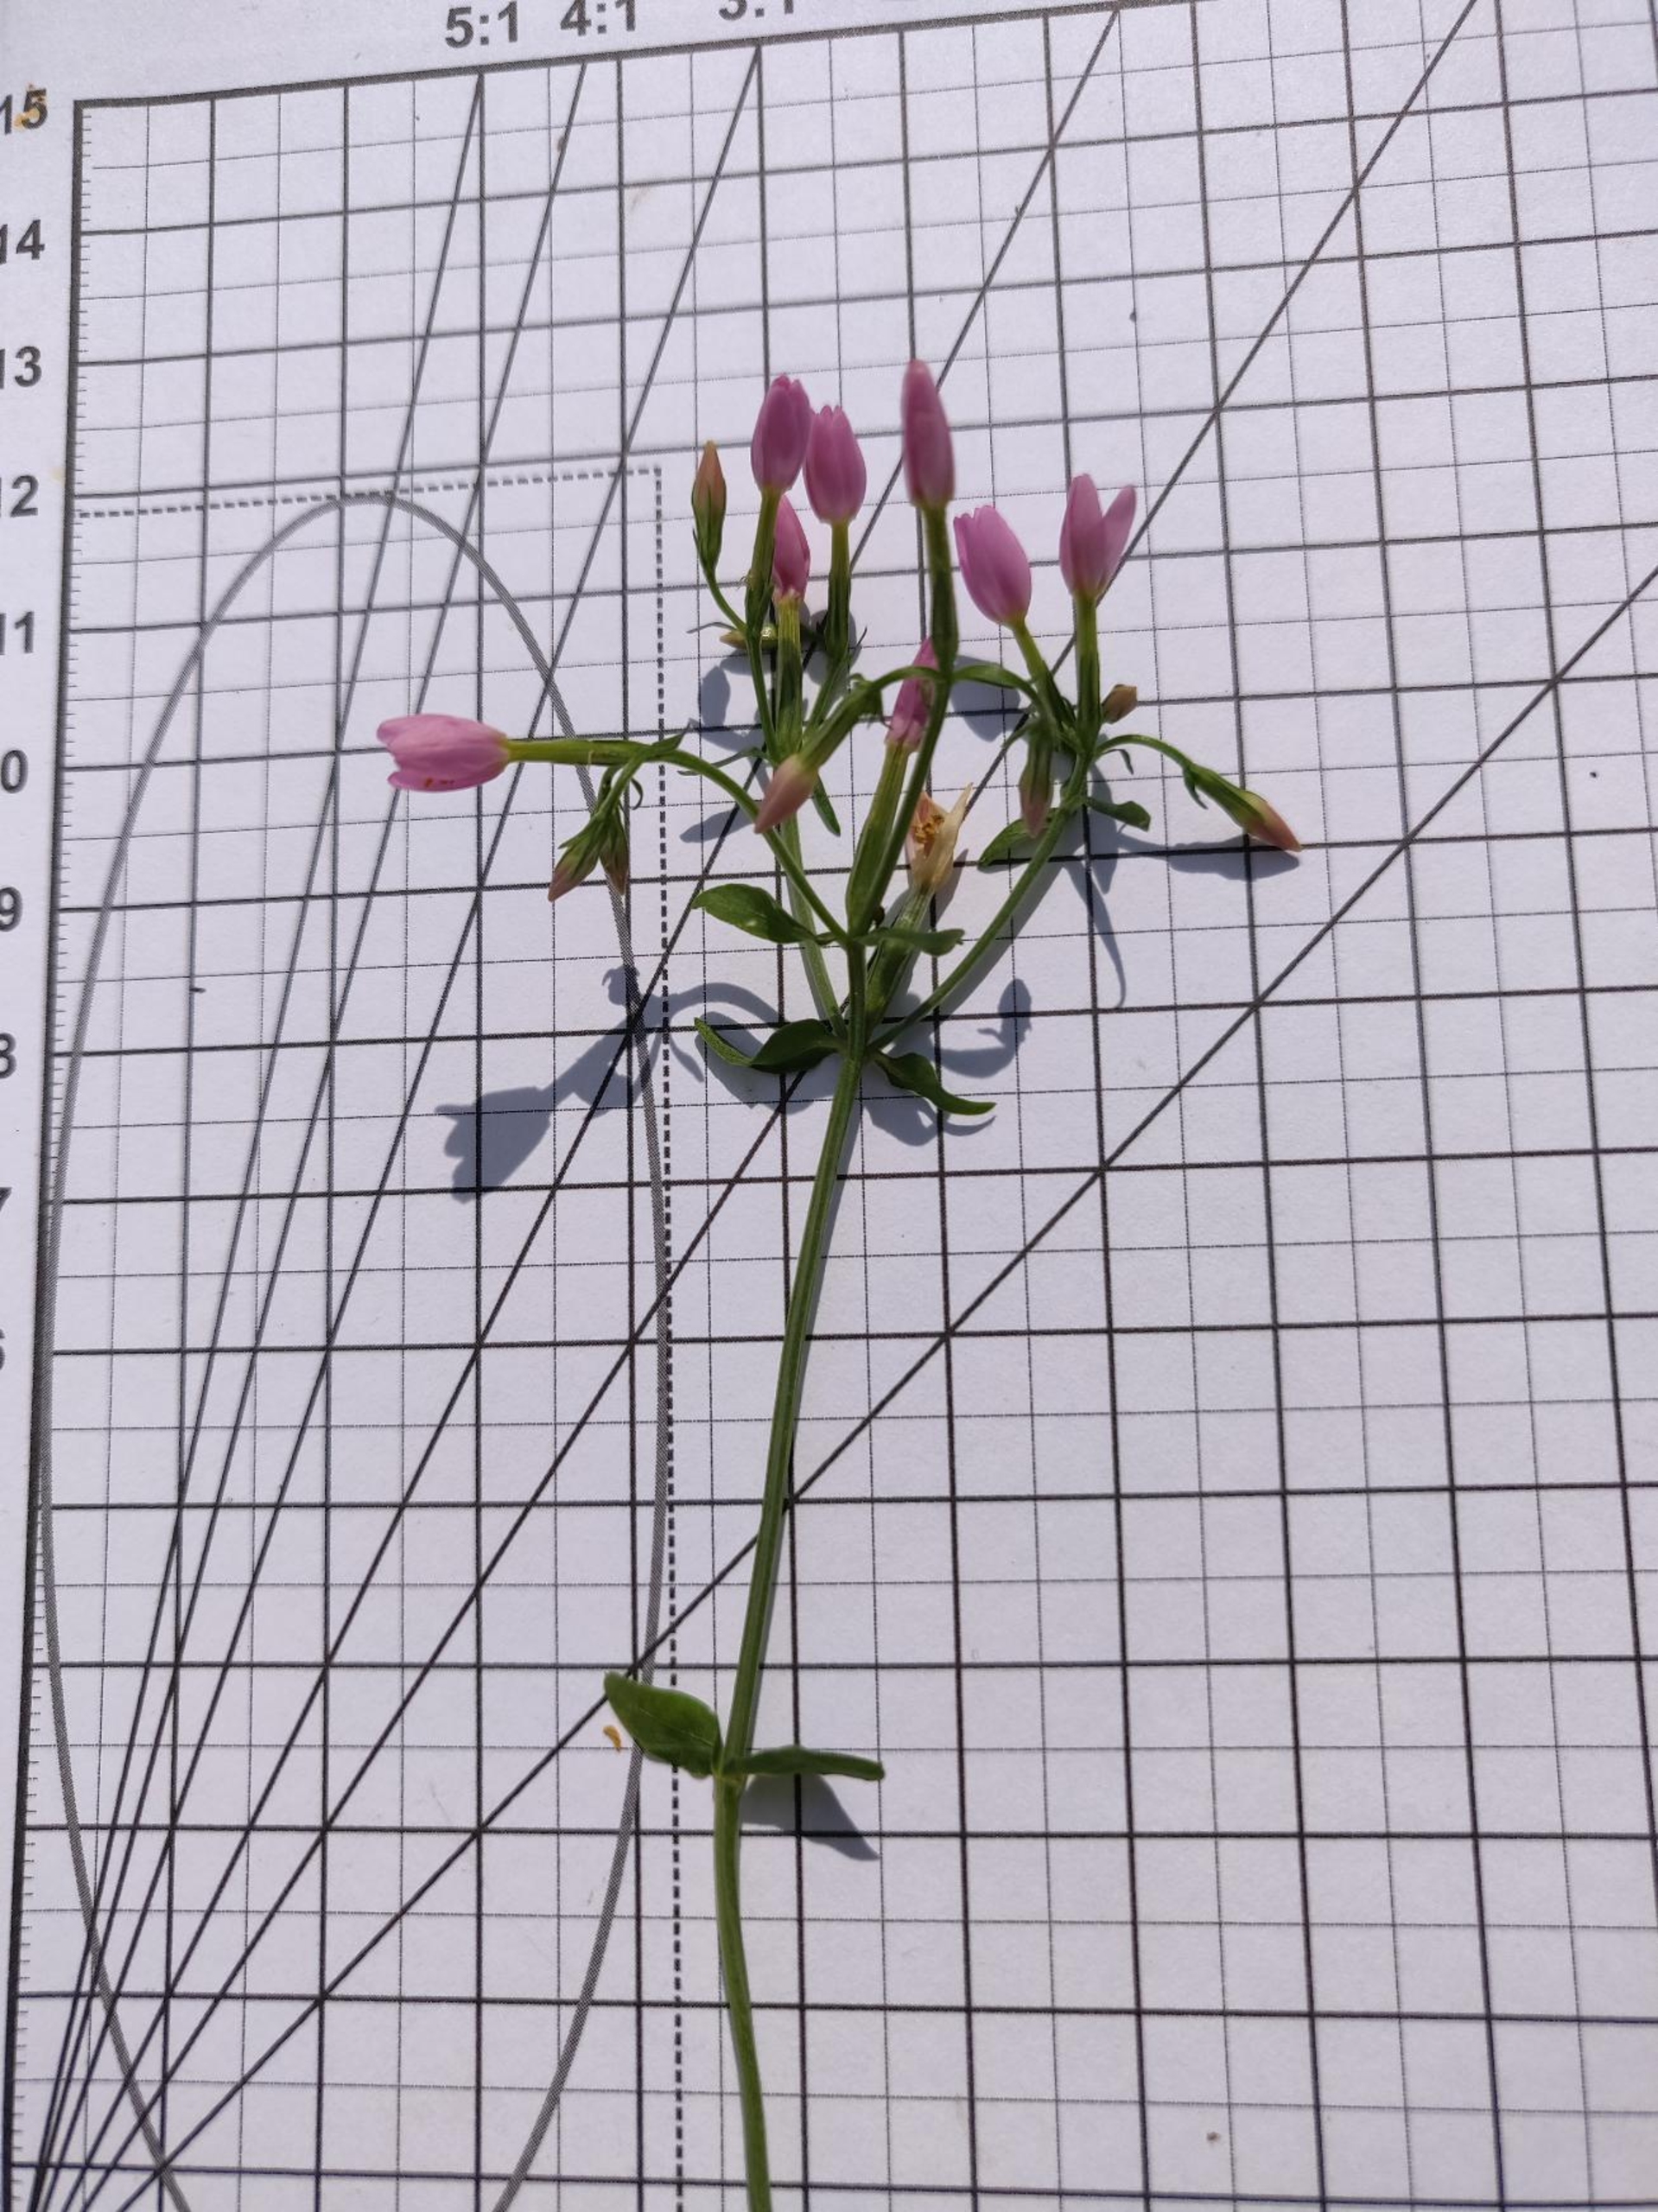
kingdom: Plantae
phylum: Tracheophyta
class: Magnoliopsida
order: Gentianales
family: Gentianaceae
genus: Centaurium
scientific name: Centaurium erythraea
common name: Mark-tusindgylden
